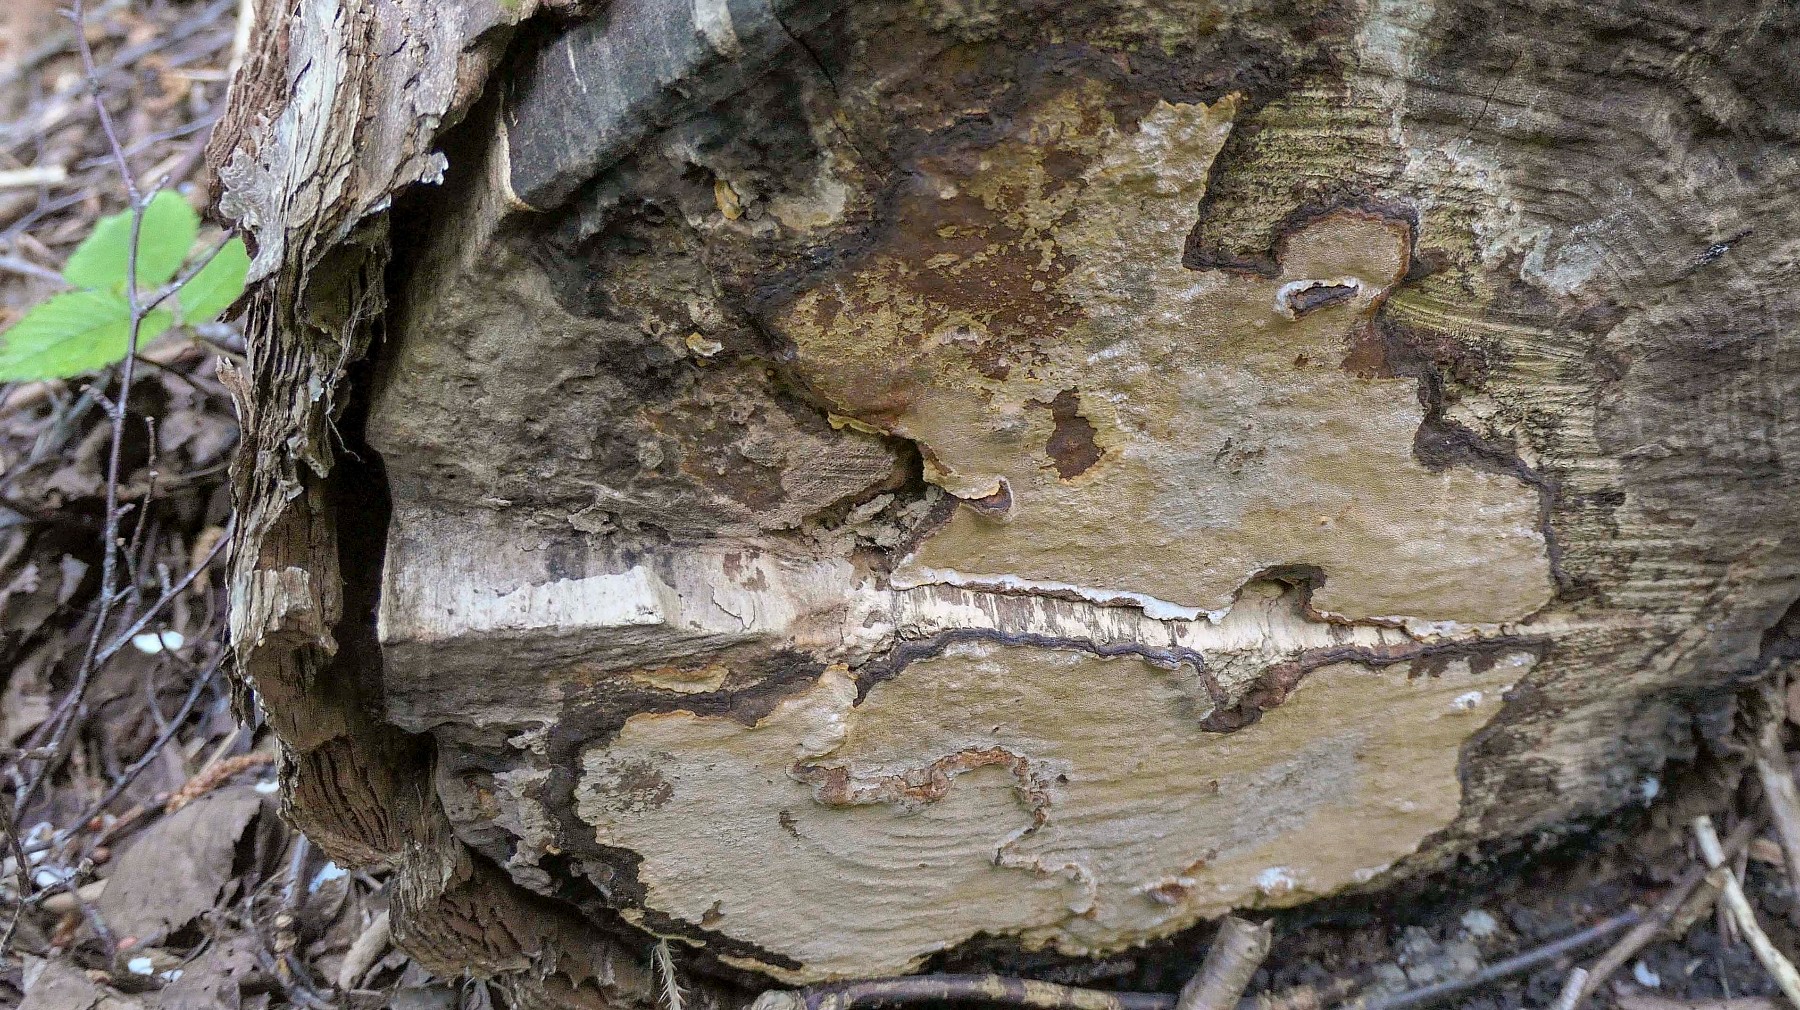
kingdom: Fungi
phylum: Basidiomycota
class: Agaricomycetes
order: Hymenochaetales
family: Hymenochaetaceae
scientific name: Hymenochaetaceae
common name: børstesvampfamilien
